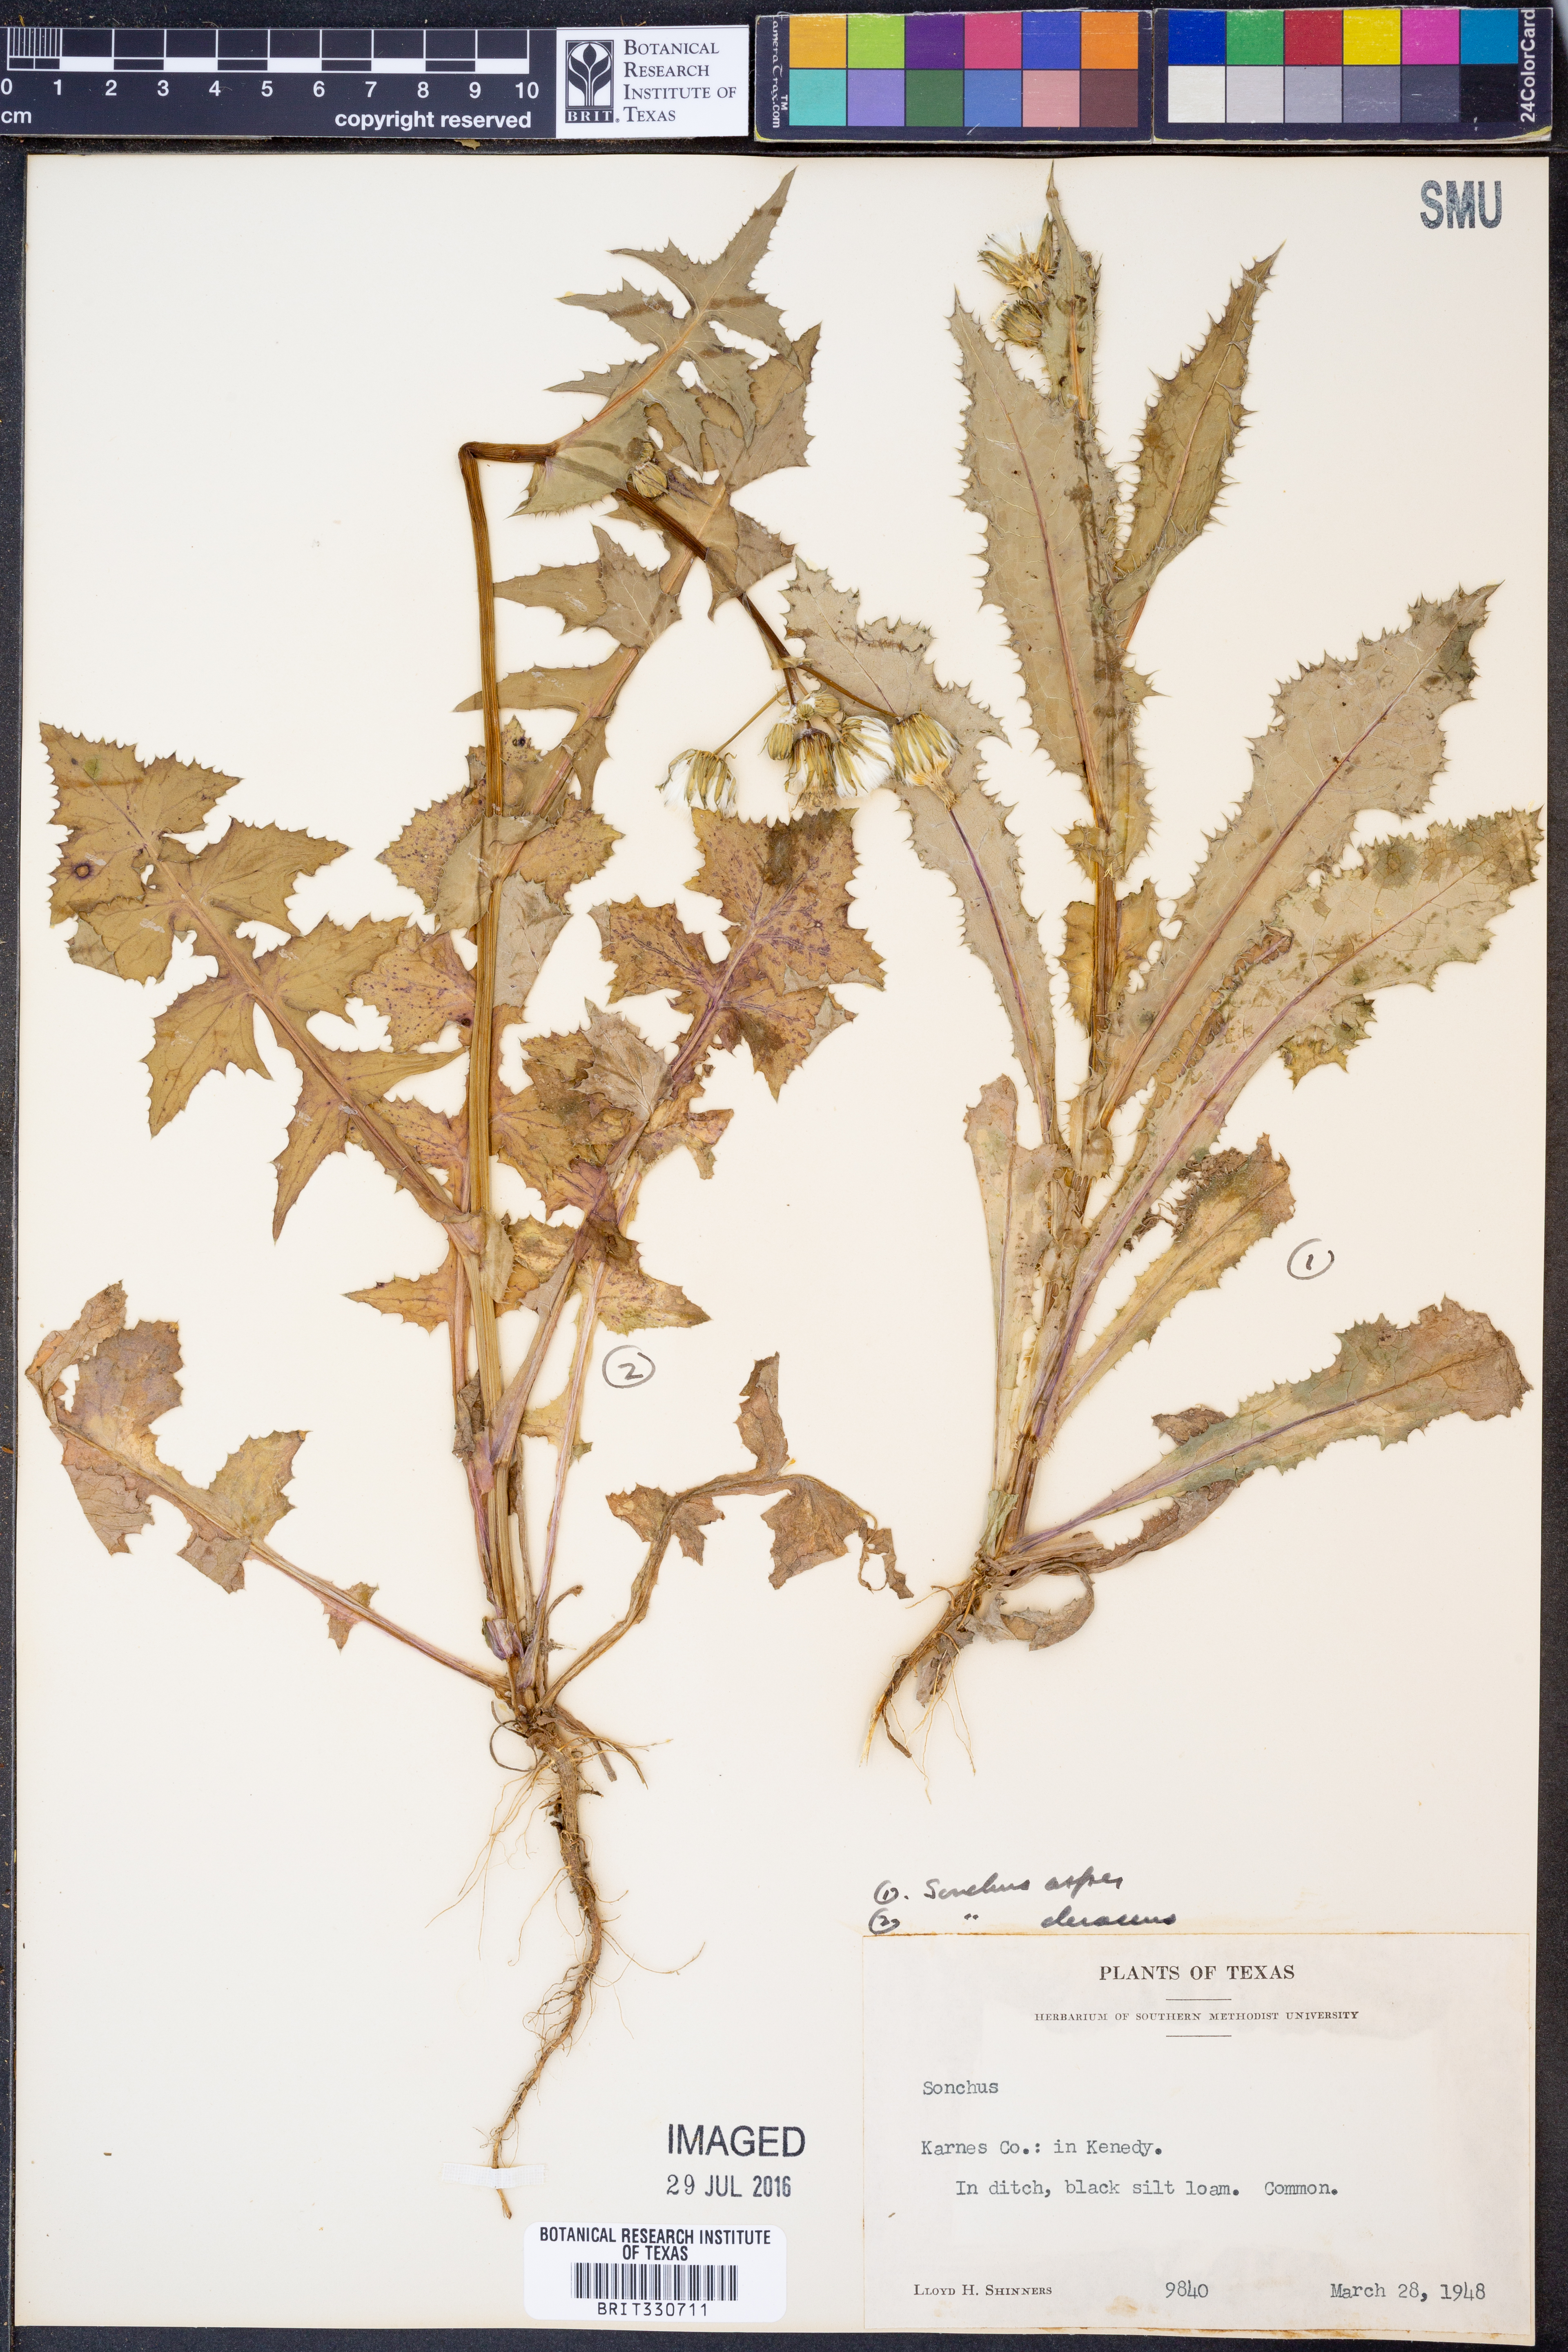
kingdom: Plantae
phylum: Tracheophyta
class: Magnoliopsida
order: Asterales
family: Asteraceae
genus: Sonchus
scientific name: Sonchus oleraceus
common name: Common sowthistle
